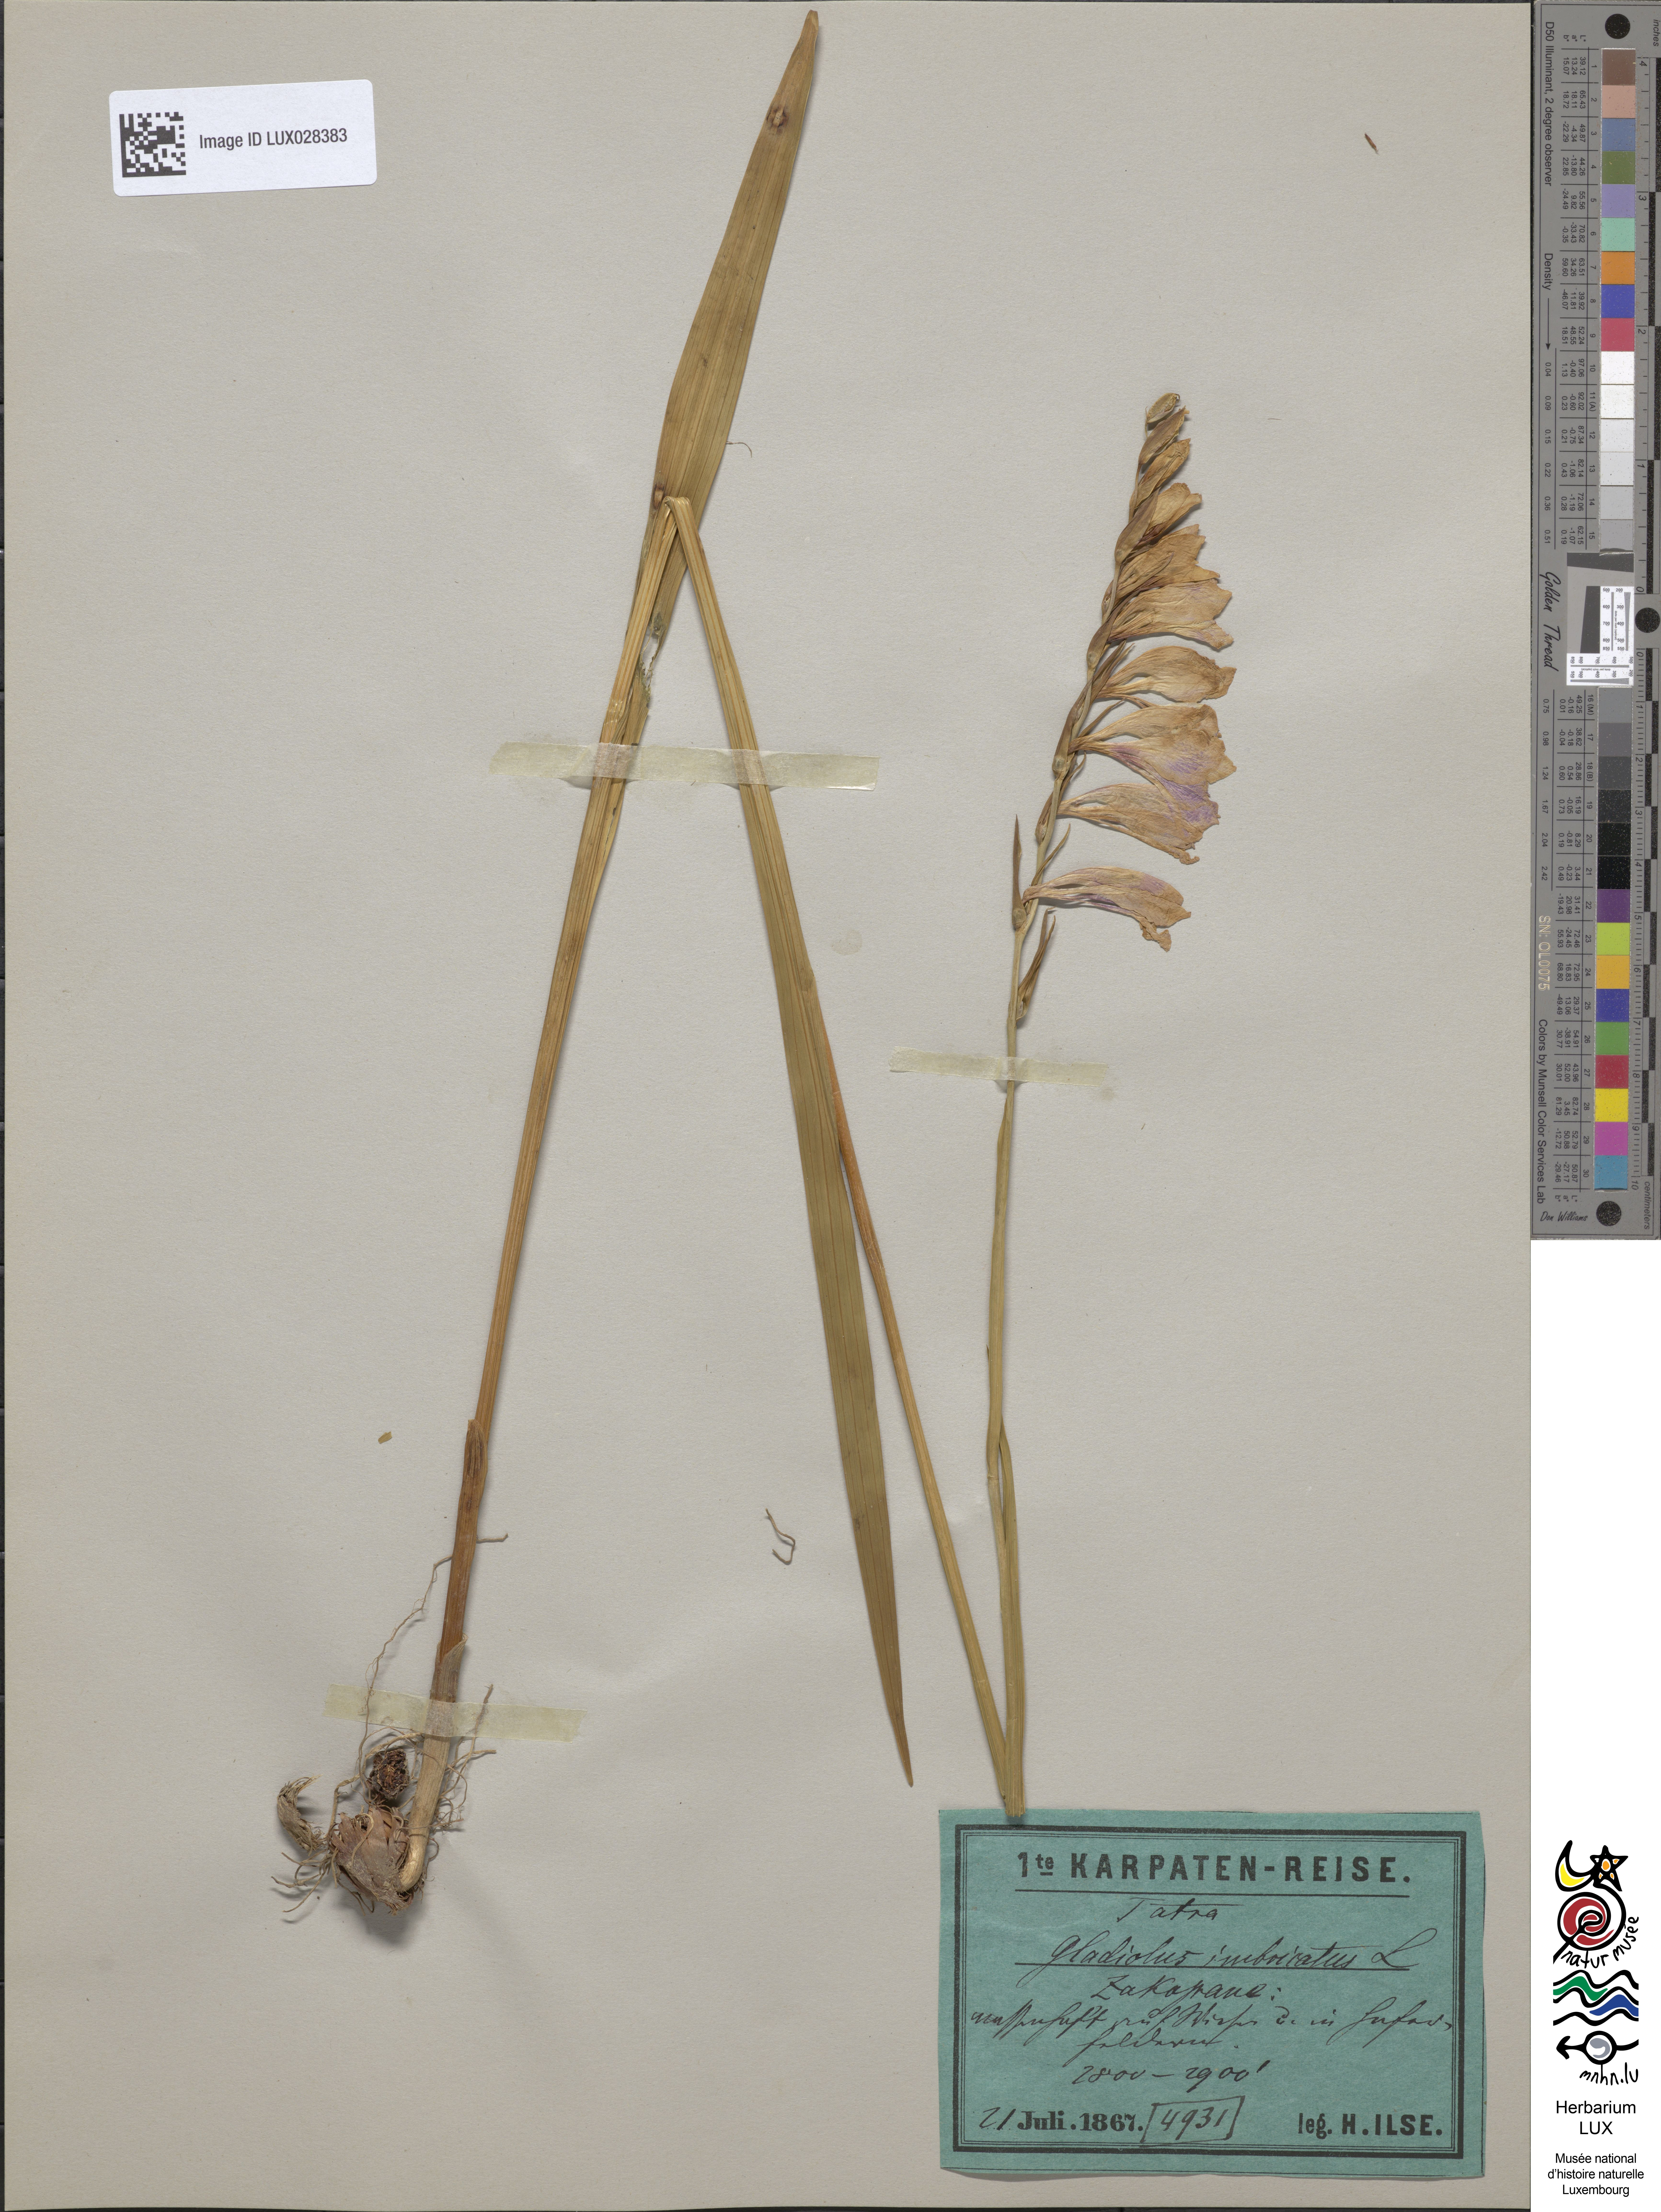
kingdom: Plantae
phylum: Tracheophyta
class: Liliopsida
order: Asparagales
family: Iridaceae
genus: Gladiolus
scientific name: Gladiolus imbricatus
